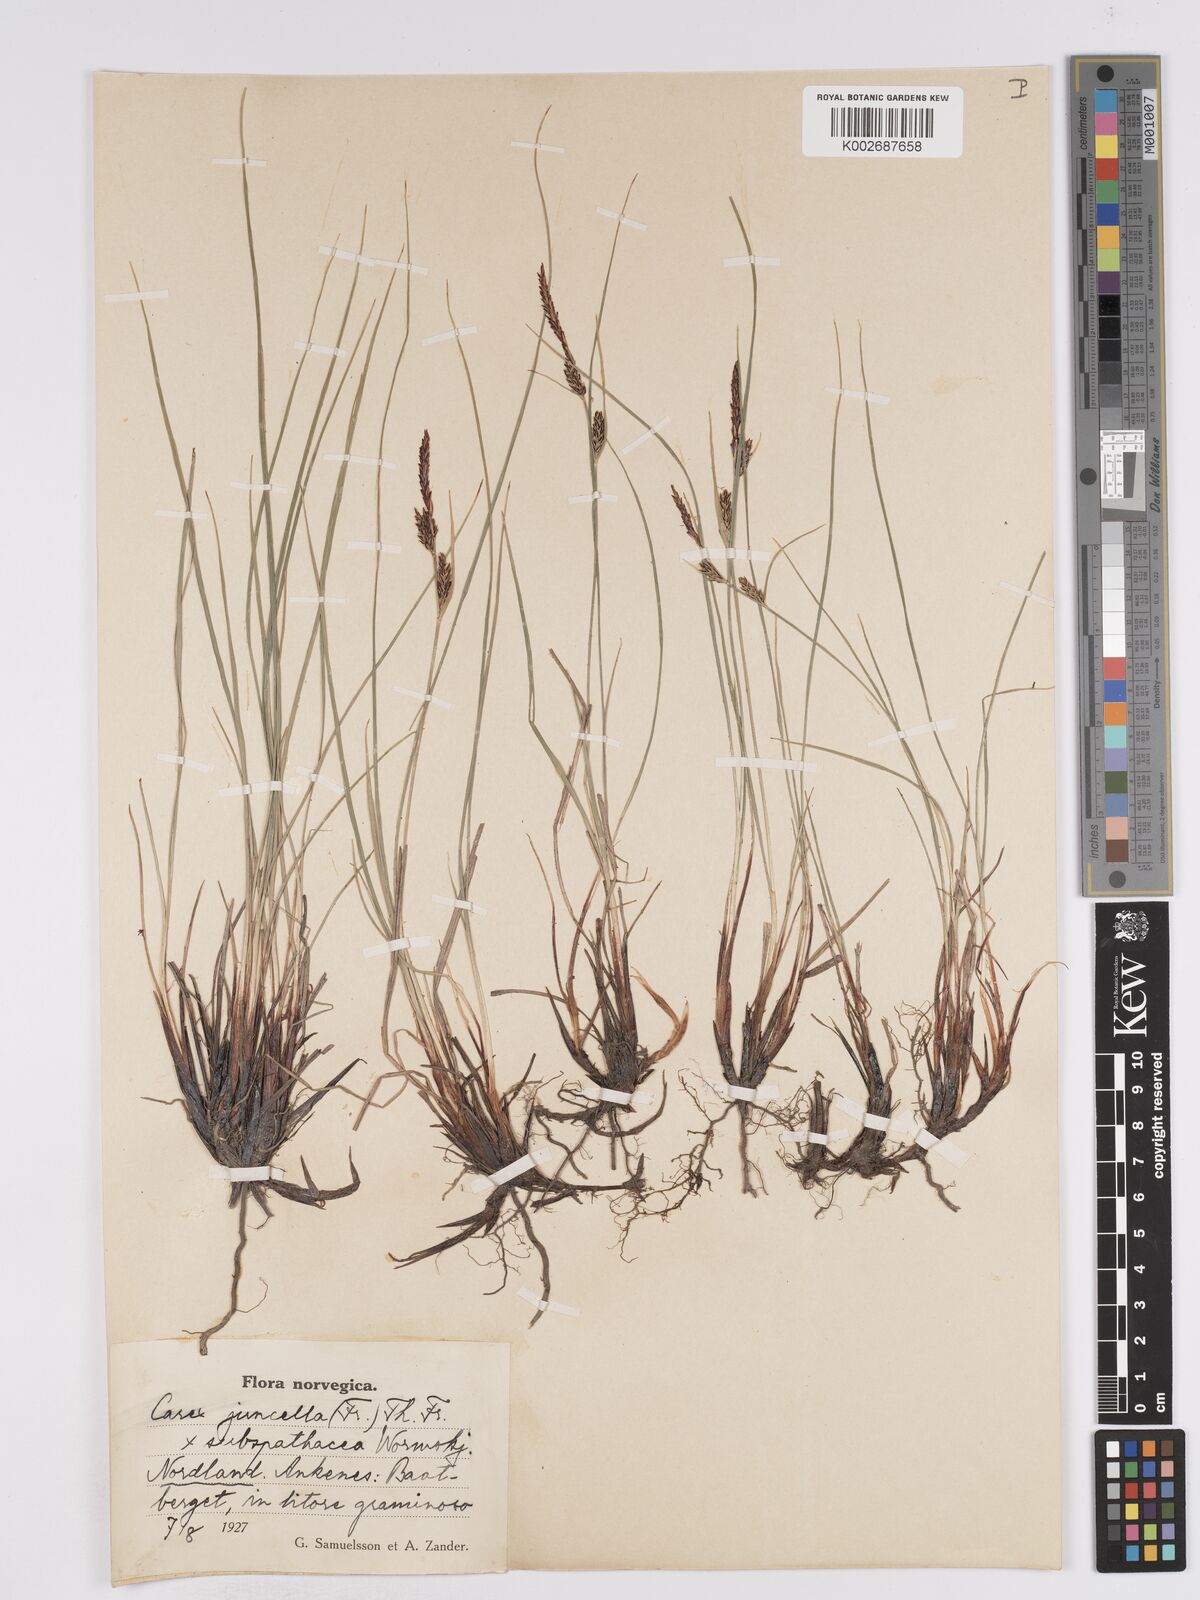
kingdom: Plantae
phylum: Tracheophyta
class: Liliopsida
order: Poales
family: Cyperaceae
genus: Carex
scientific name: Carex
